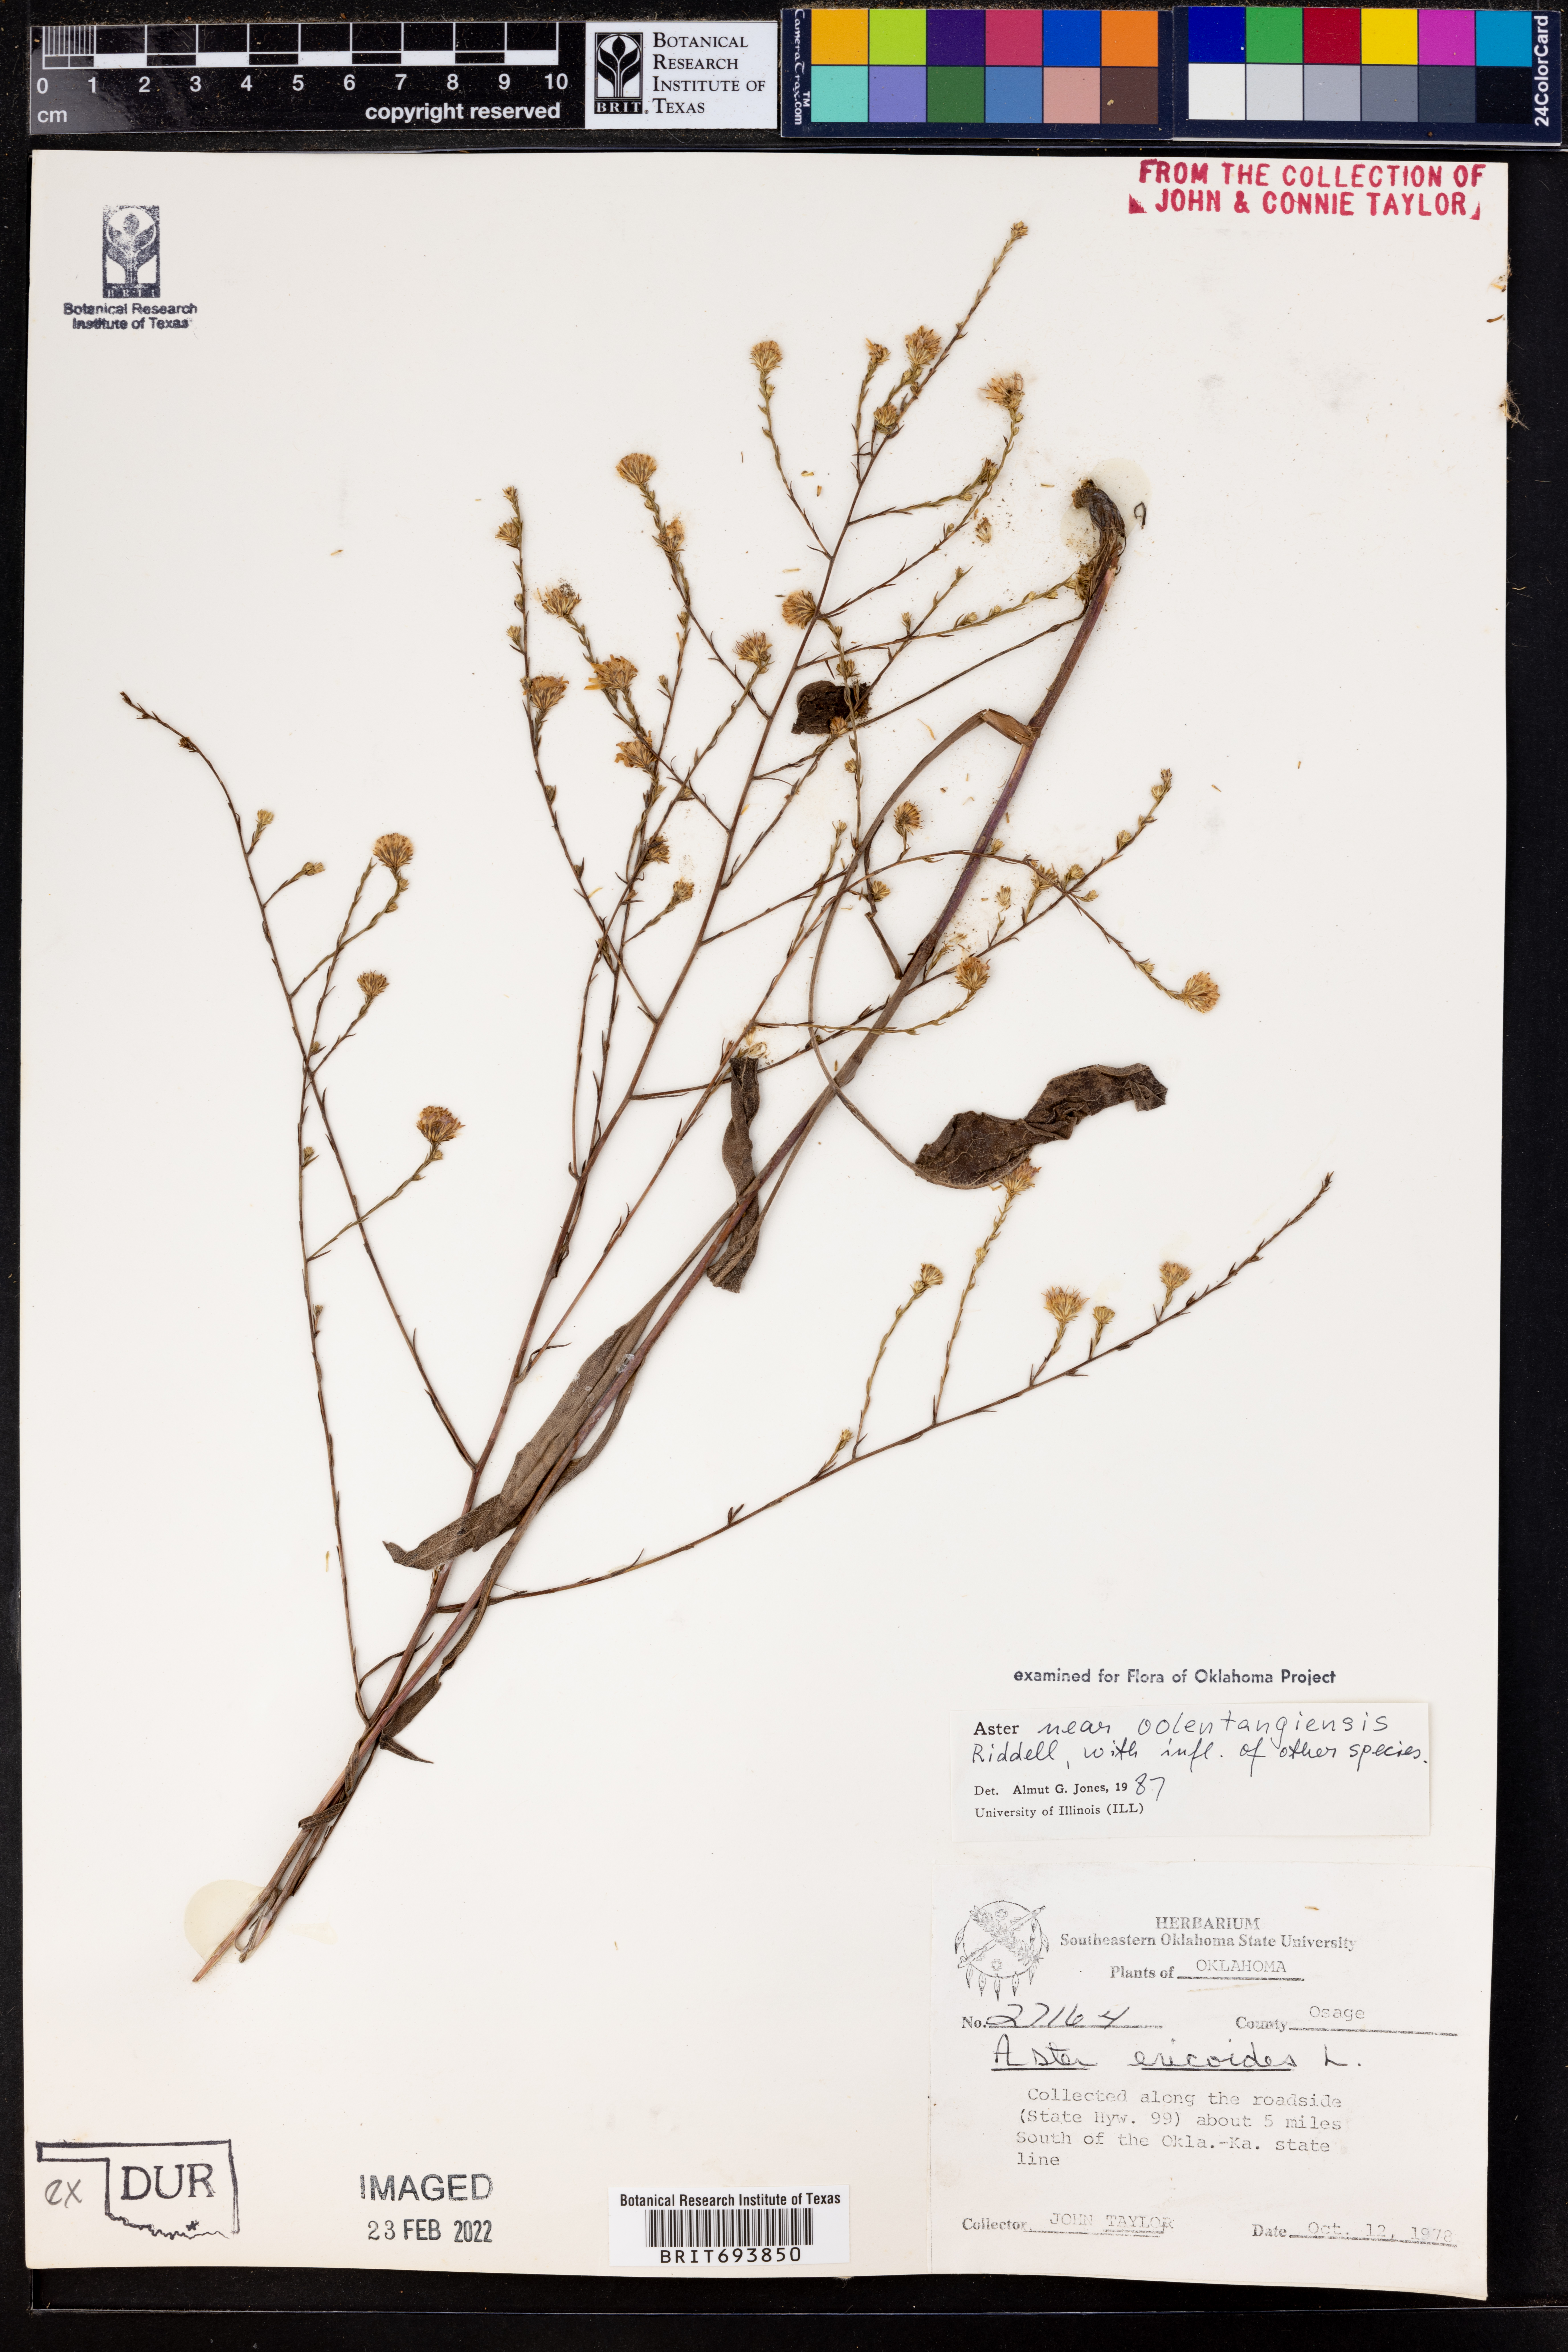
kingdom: Plantae
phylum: Tracheophyta
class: Magnoliopsida
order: Asterales
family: Asteraceae
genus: Symphyotrichum
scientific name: Symphyotrichum oolentangiense
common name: Azure aster
